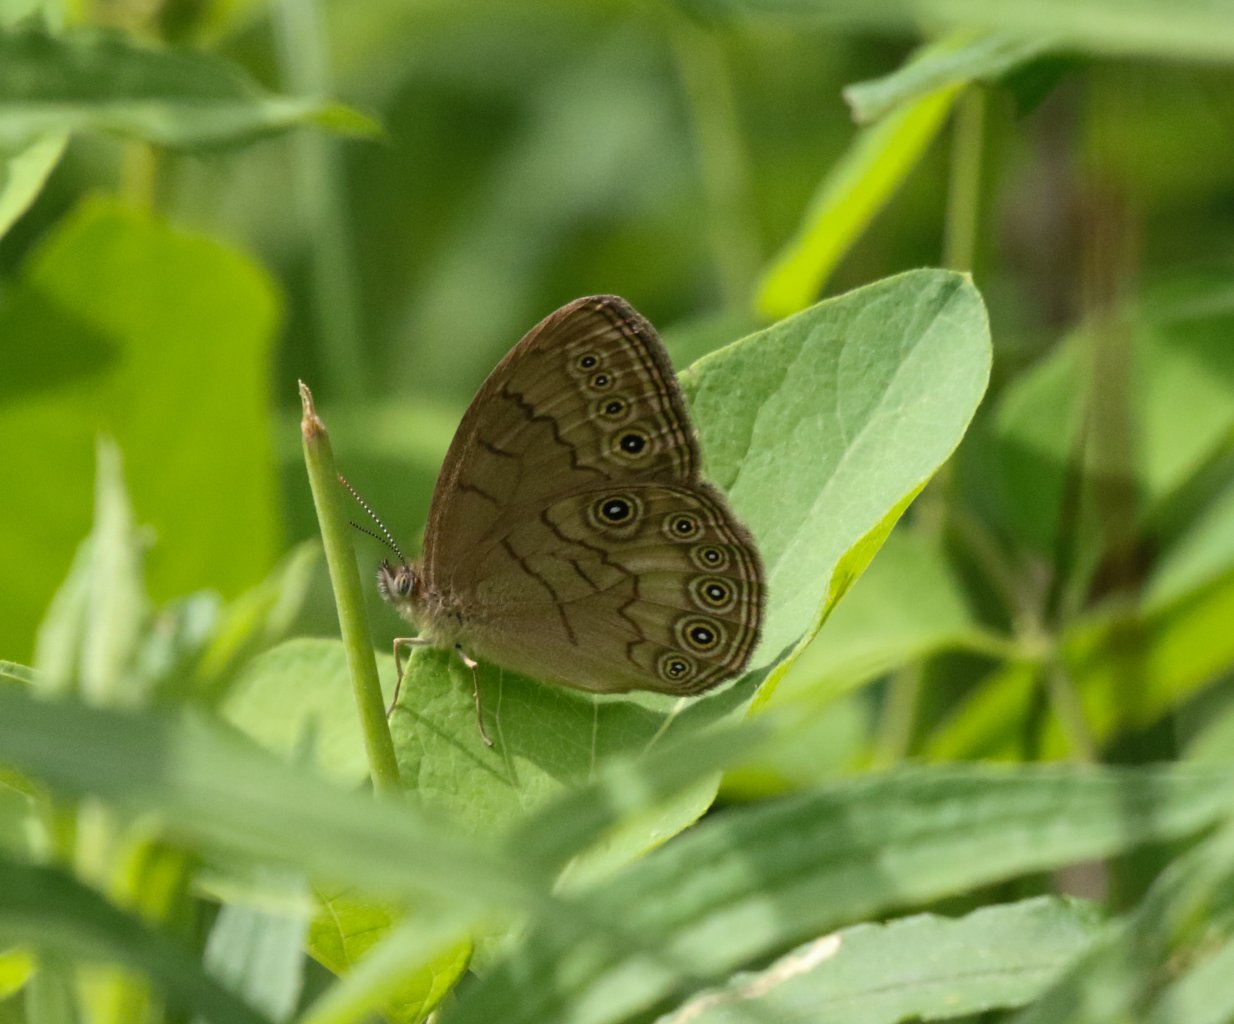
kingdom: Animalia
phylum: Arthropoda
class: Insecta
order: Lepidoptera
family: Nymphalidae
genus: Lethe
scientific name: Lethe eurydice
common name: Eyed Brown
